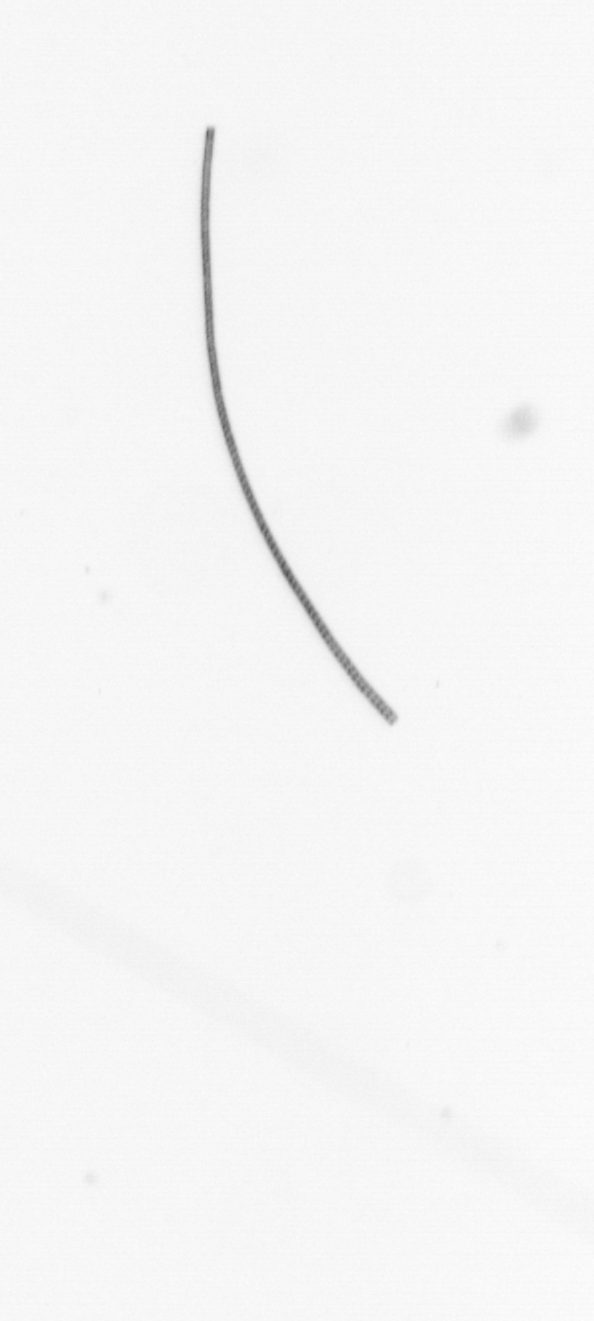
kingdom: Chromista
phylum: Ochrophyta
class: Bacillariophyceae
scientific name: Bacillariophyceae
